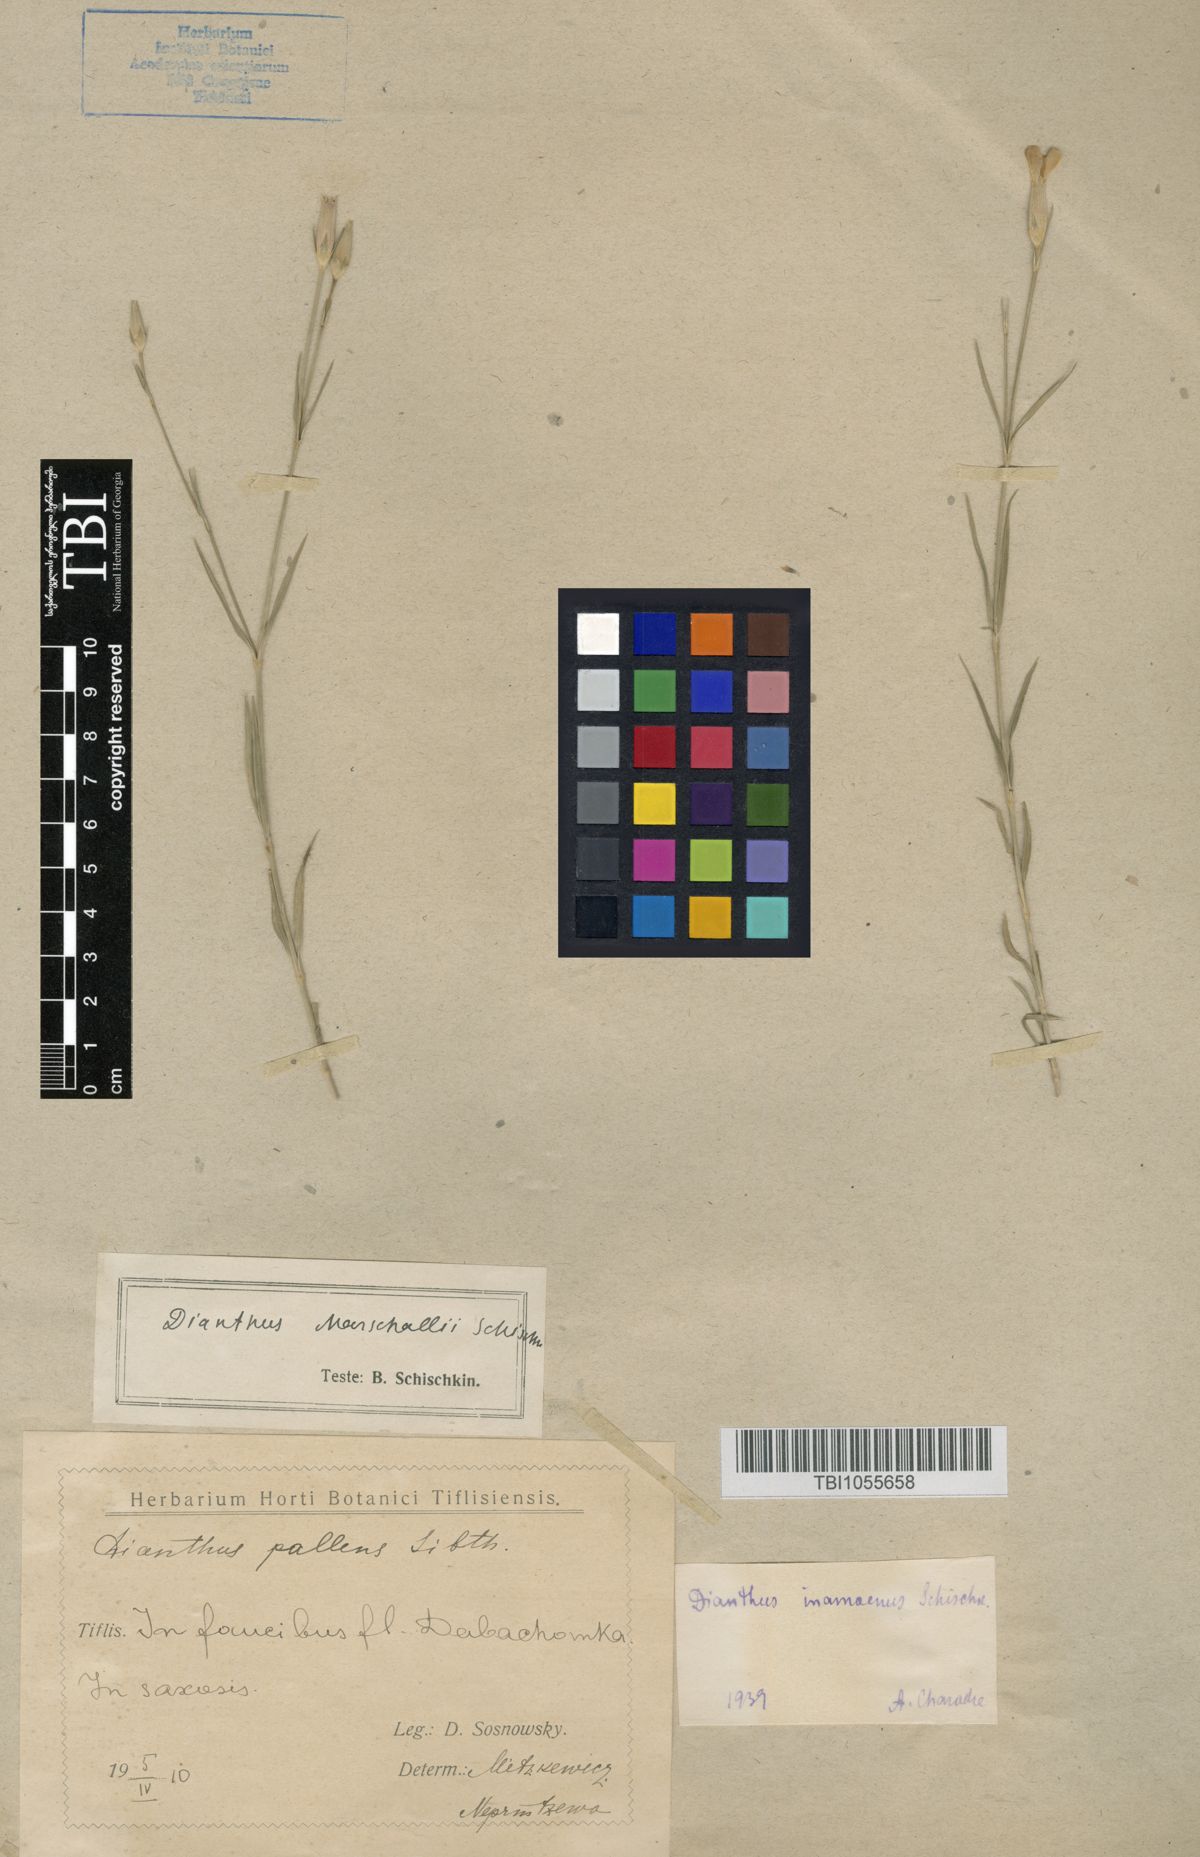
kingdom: Plantae
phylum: Tracheophyta
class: Magnoliopsida
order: Caryophyllales
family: Caryophyllaceae
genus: Dianthus
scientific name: Dianthus inamoenus
